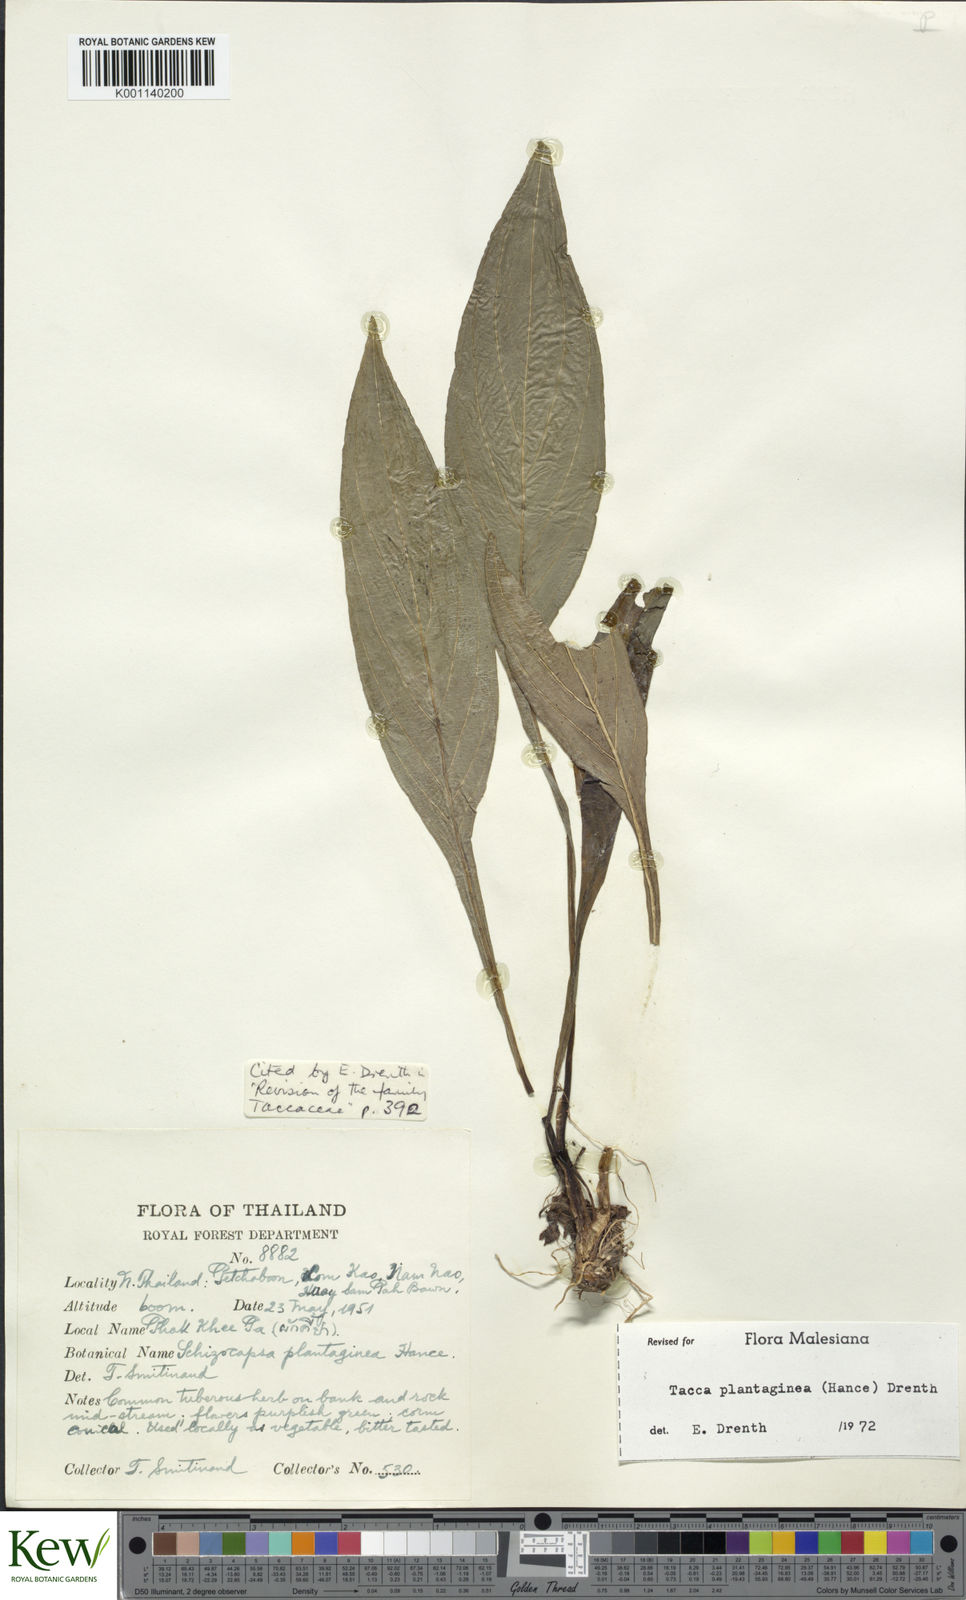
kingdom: Plantae
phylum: Tracheophyta
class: Liliopsida
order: Dioscoreales
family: Dioscoreaceae
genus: Tacca
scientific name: Tacca plantaginea
